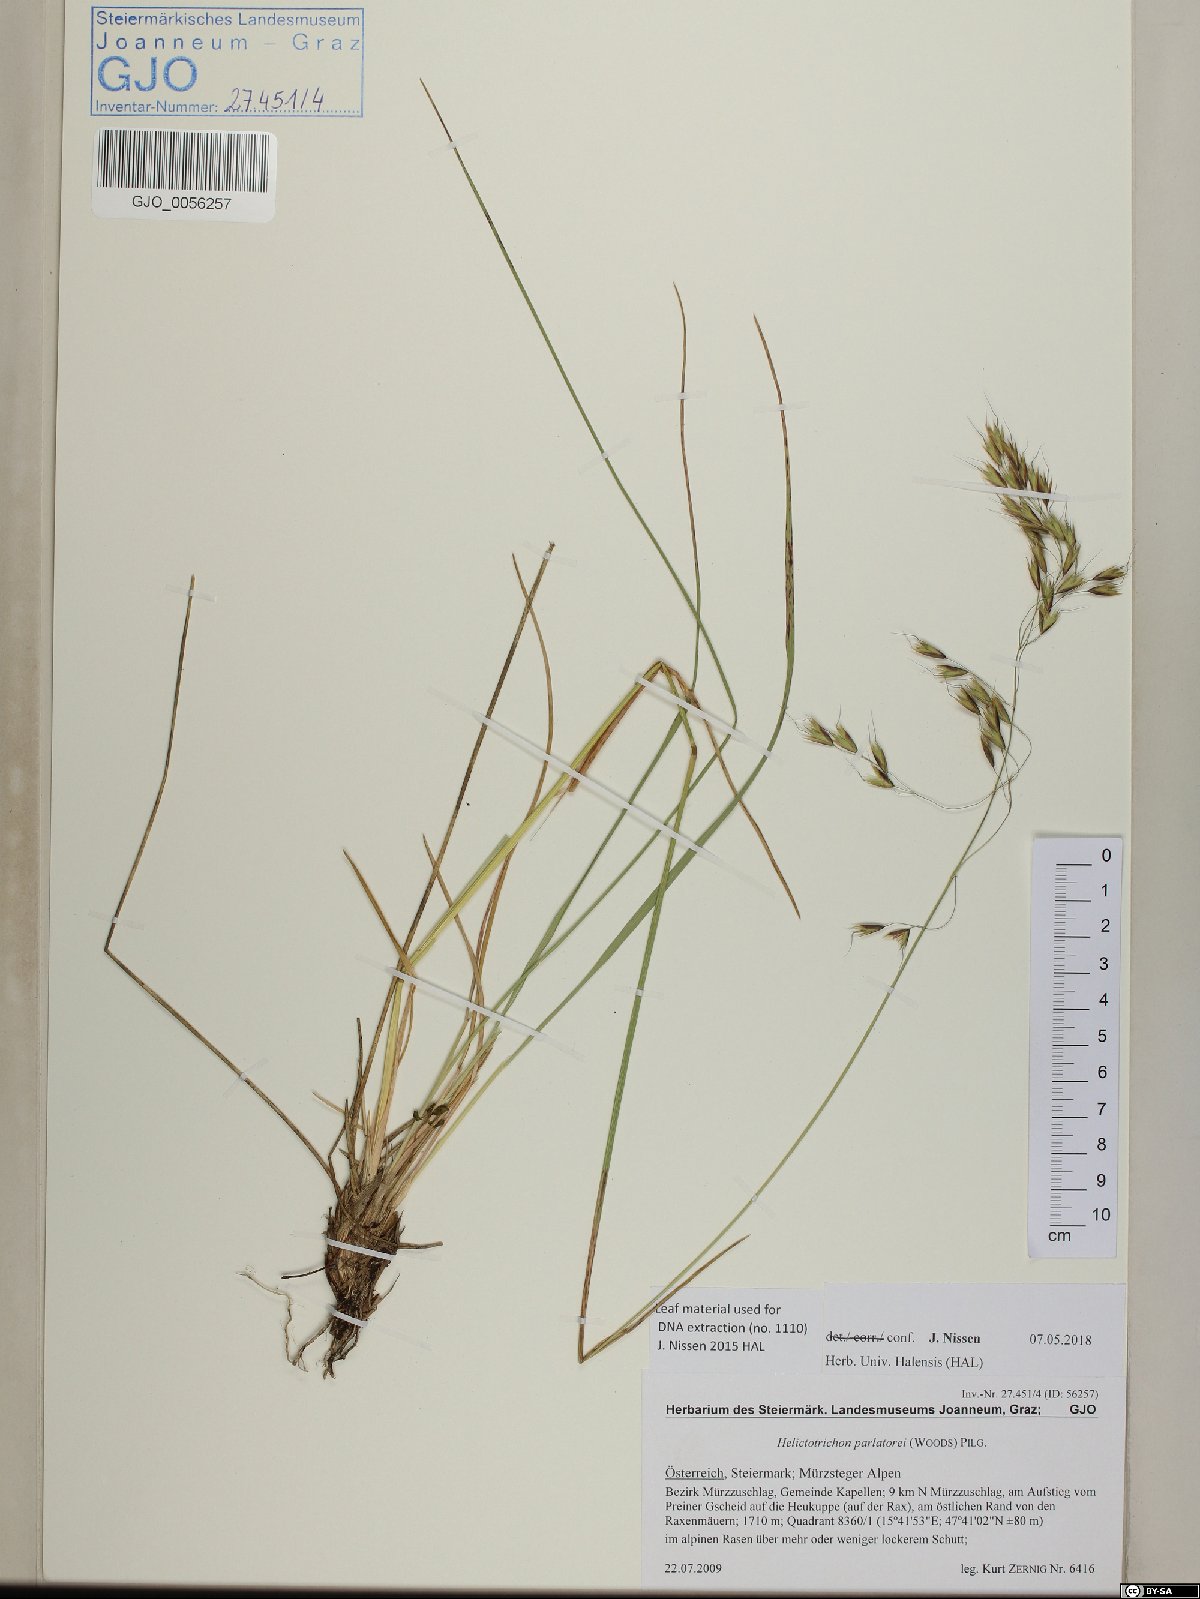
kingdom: Plantae
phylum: Tracheophyta
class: Liliopsida
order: Poales
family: Poaceae
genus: Helictotrichon
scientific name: Helictotrichon parlatorei
